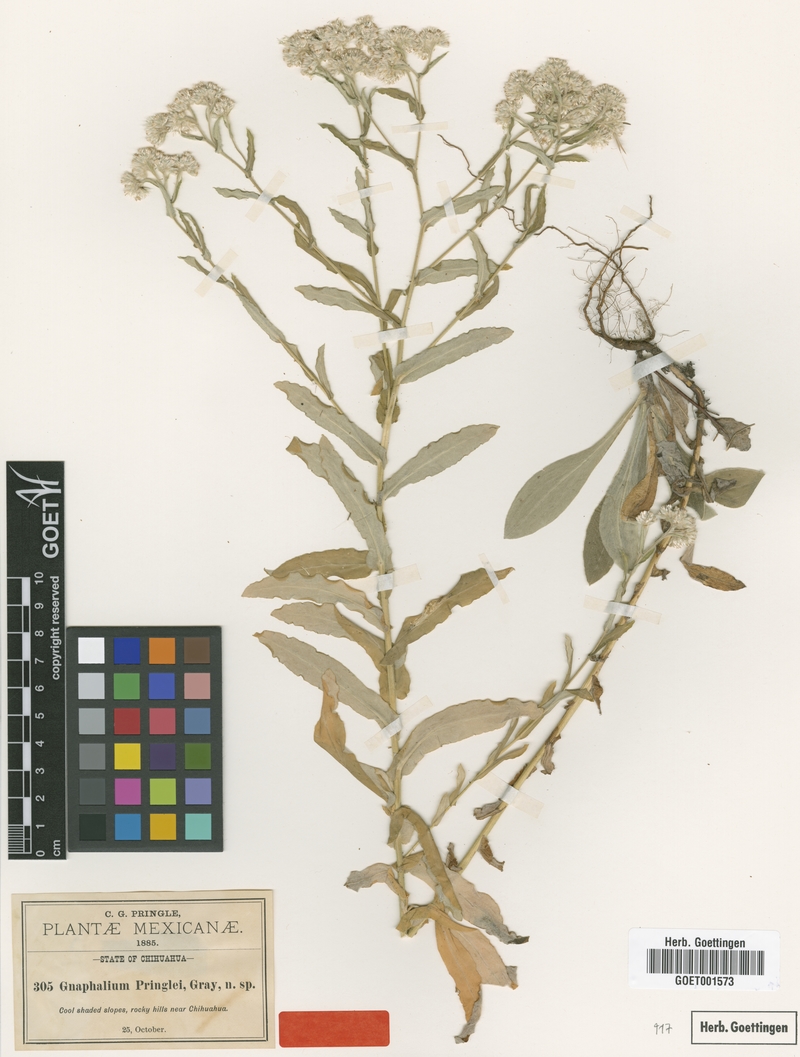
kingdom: Plantae
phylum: Tracheophyta
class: Magnoliopsida
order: Asterales
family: Asteraceae
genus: Pseudognaphalium
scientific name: Pseudognaphalium pringlei
